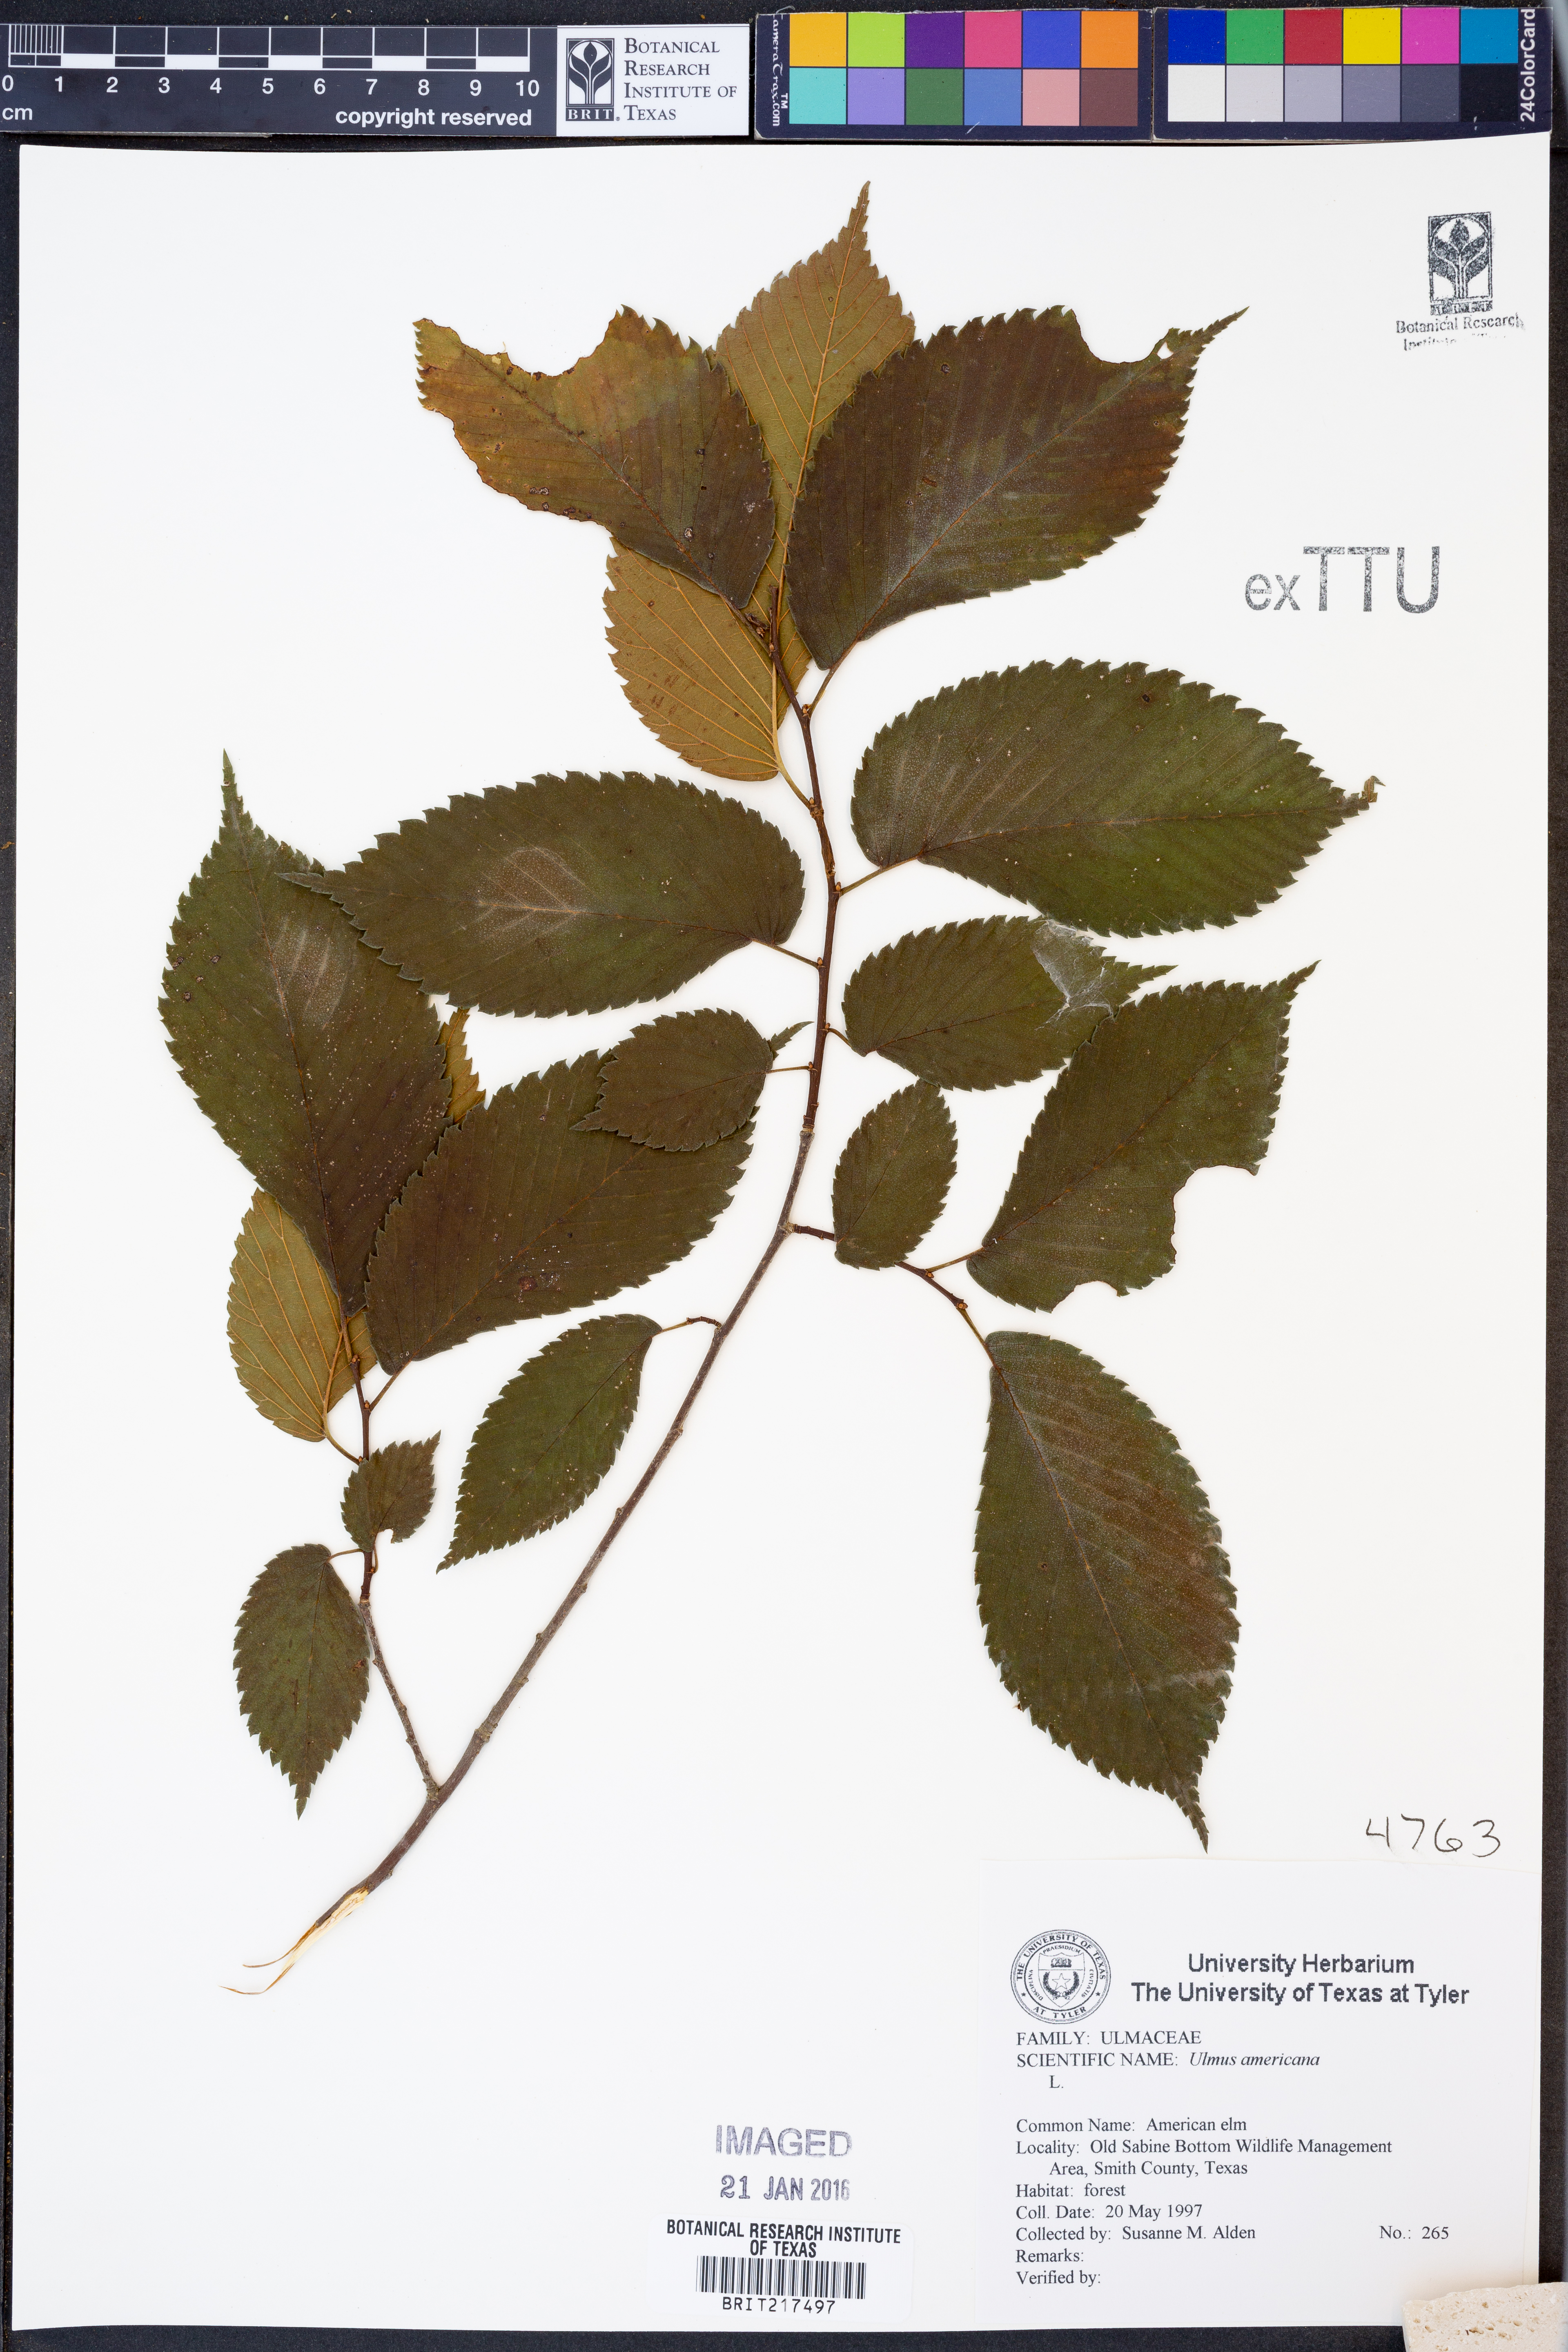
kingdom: Plantae
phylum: Tracheophyta
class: Magnoliopsida
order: Rosales
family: Ulmaceae
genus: Ulmus
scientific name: Ulmus americana
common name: American elm
